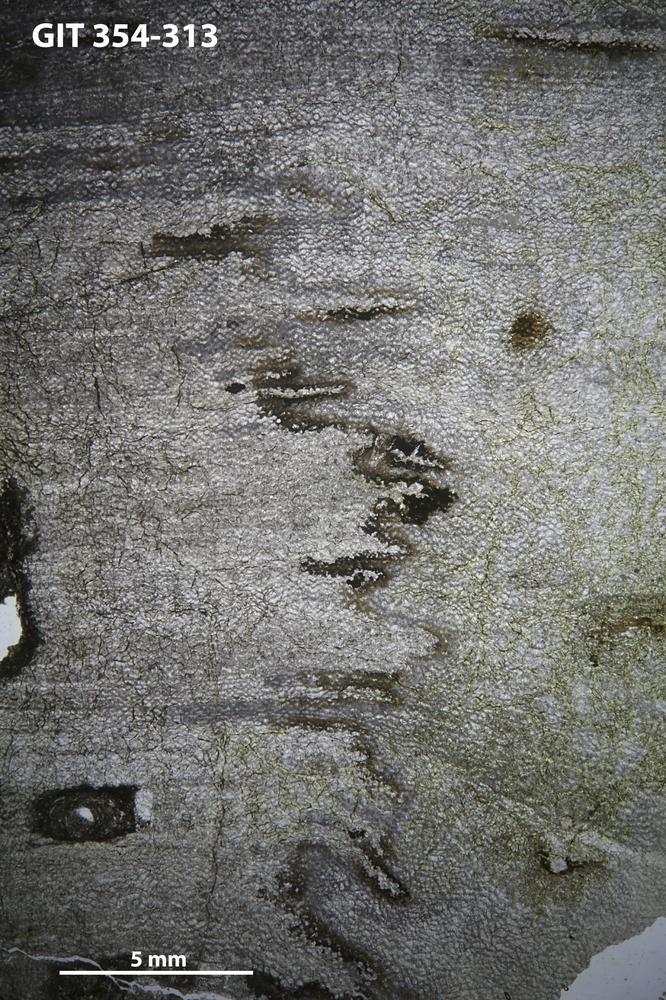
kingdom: Animalia
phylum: Porifera
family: Ecclimadictyidae
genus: Ecclimadictyon
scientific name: Ecclimadictyon macrotuberculatum
